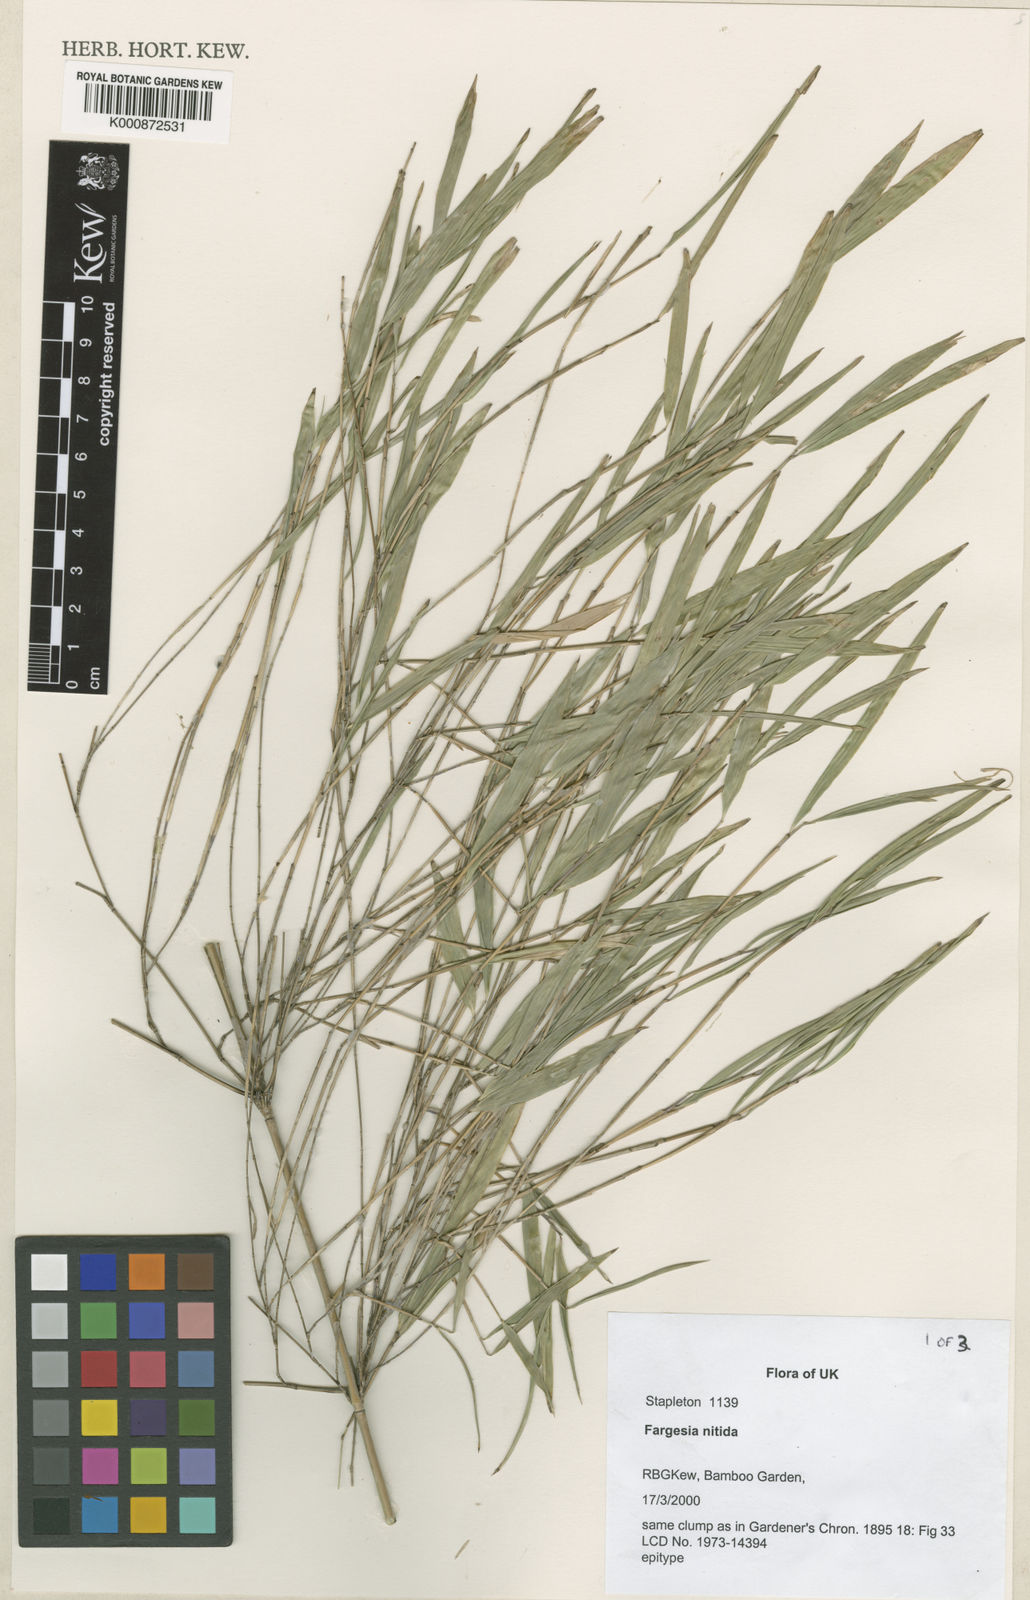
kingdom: Plantae
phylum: Tracheophyta
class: Liliopsida
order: Poales
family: Poaceae
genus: Fargesia
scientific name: Fargesia nitida ex
